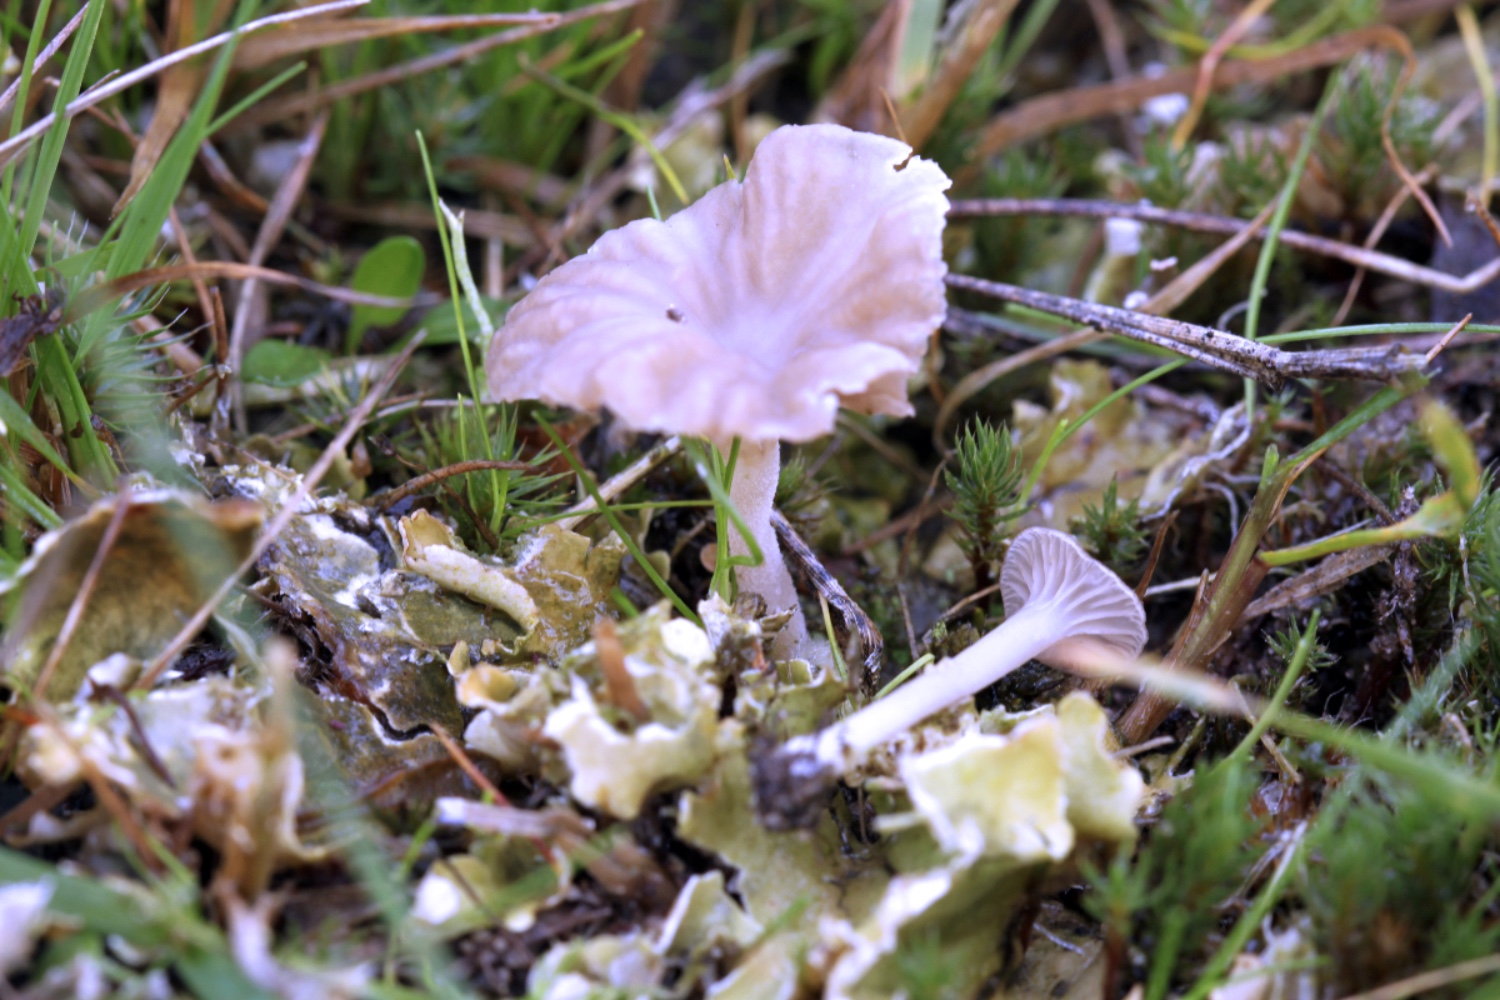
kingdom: Fungi
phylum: Basidiomycota
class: Agaricomycetes
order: Agaricales
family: Hygrophoraceae
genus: Arrhenia
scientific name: Arrhenia peltigerina
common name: skjoldlav-fontænehat
